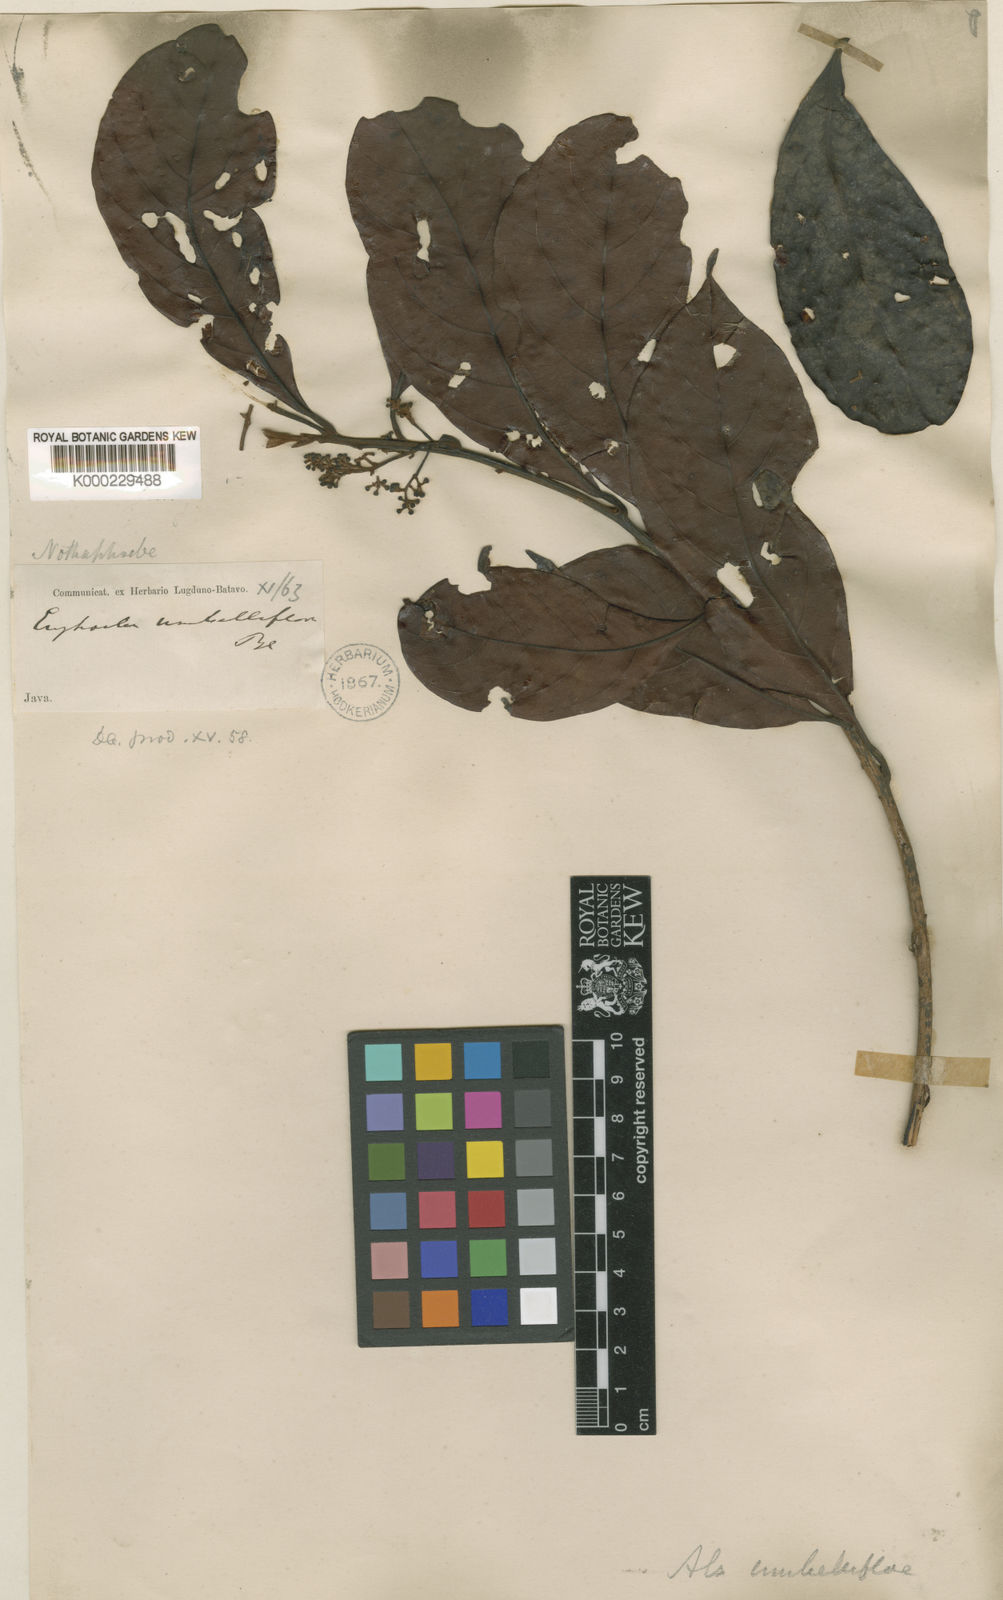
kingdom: Plantae
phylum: Tracheophyta
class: Magnoliopsida
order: Laurales
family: Lauraceae
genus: Nothaphoebe
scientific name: Nothaphoebe umbelliflora
